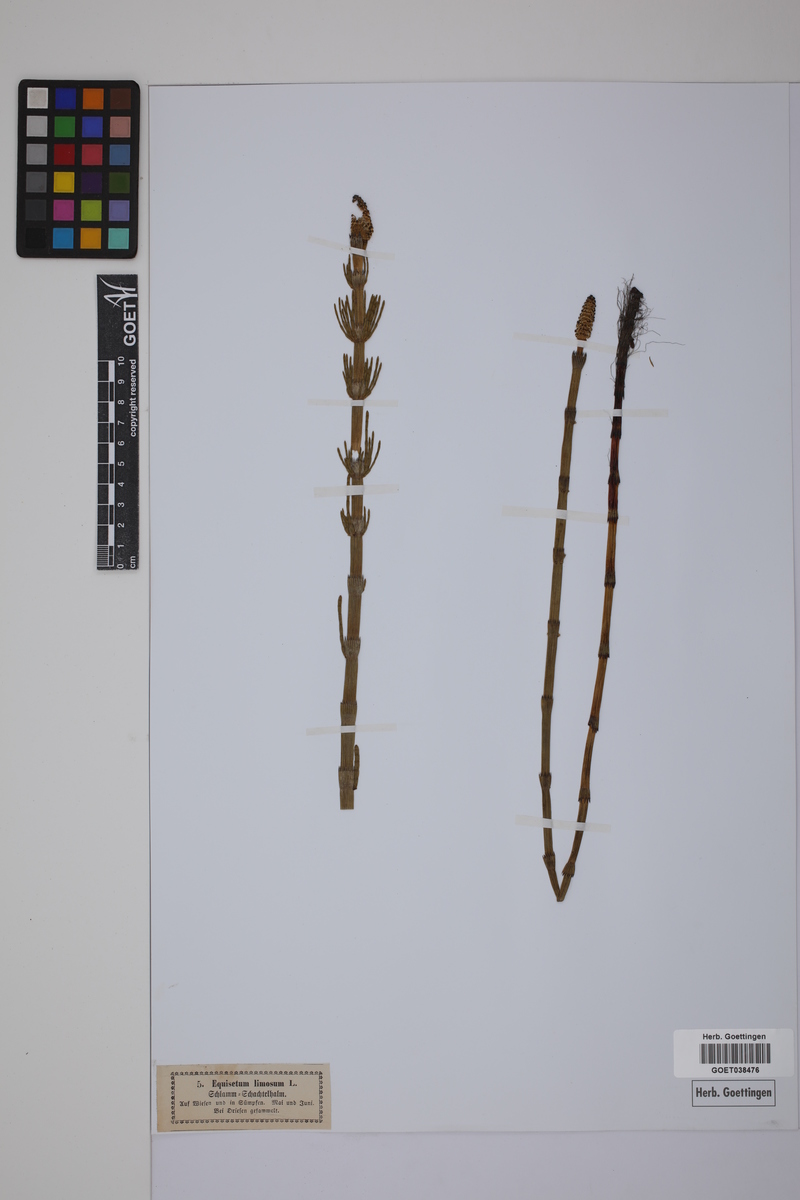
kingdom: Plantae
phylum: Tracheophyta
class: Polypodiopsida
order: Equisetales
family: Equisetaceae
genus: Equisetum
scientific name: Equisetum fluviatile
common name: Water horsetail
